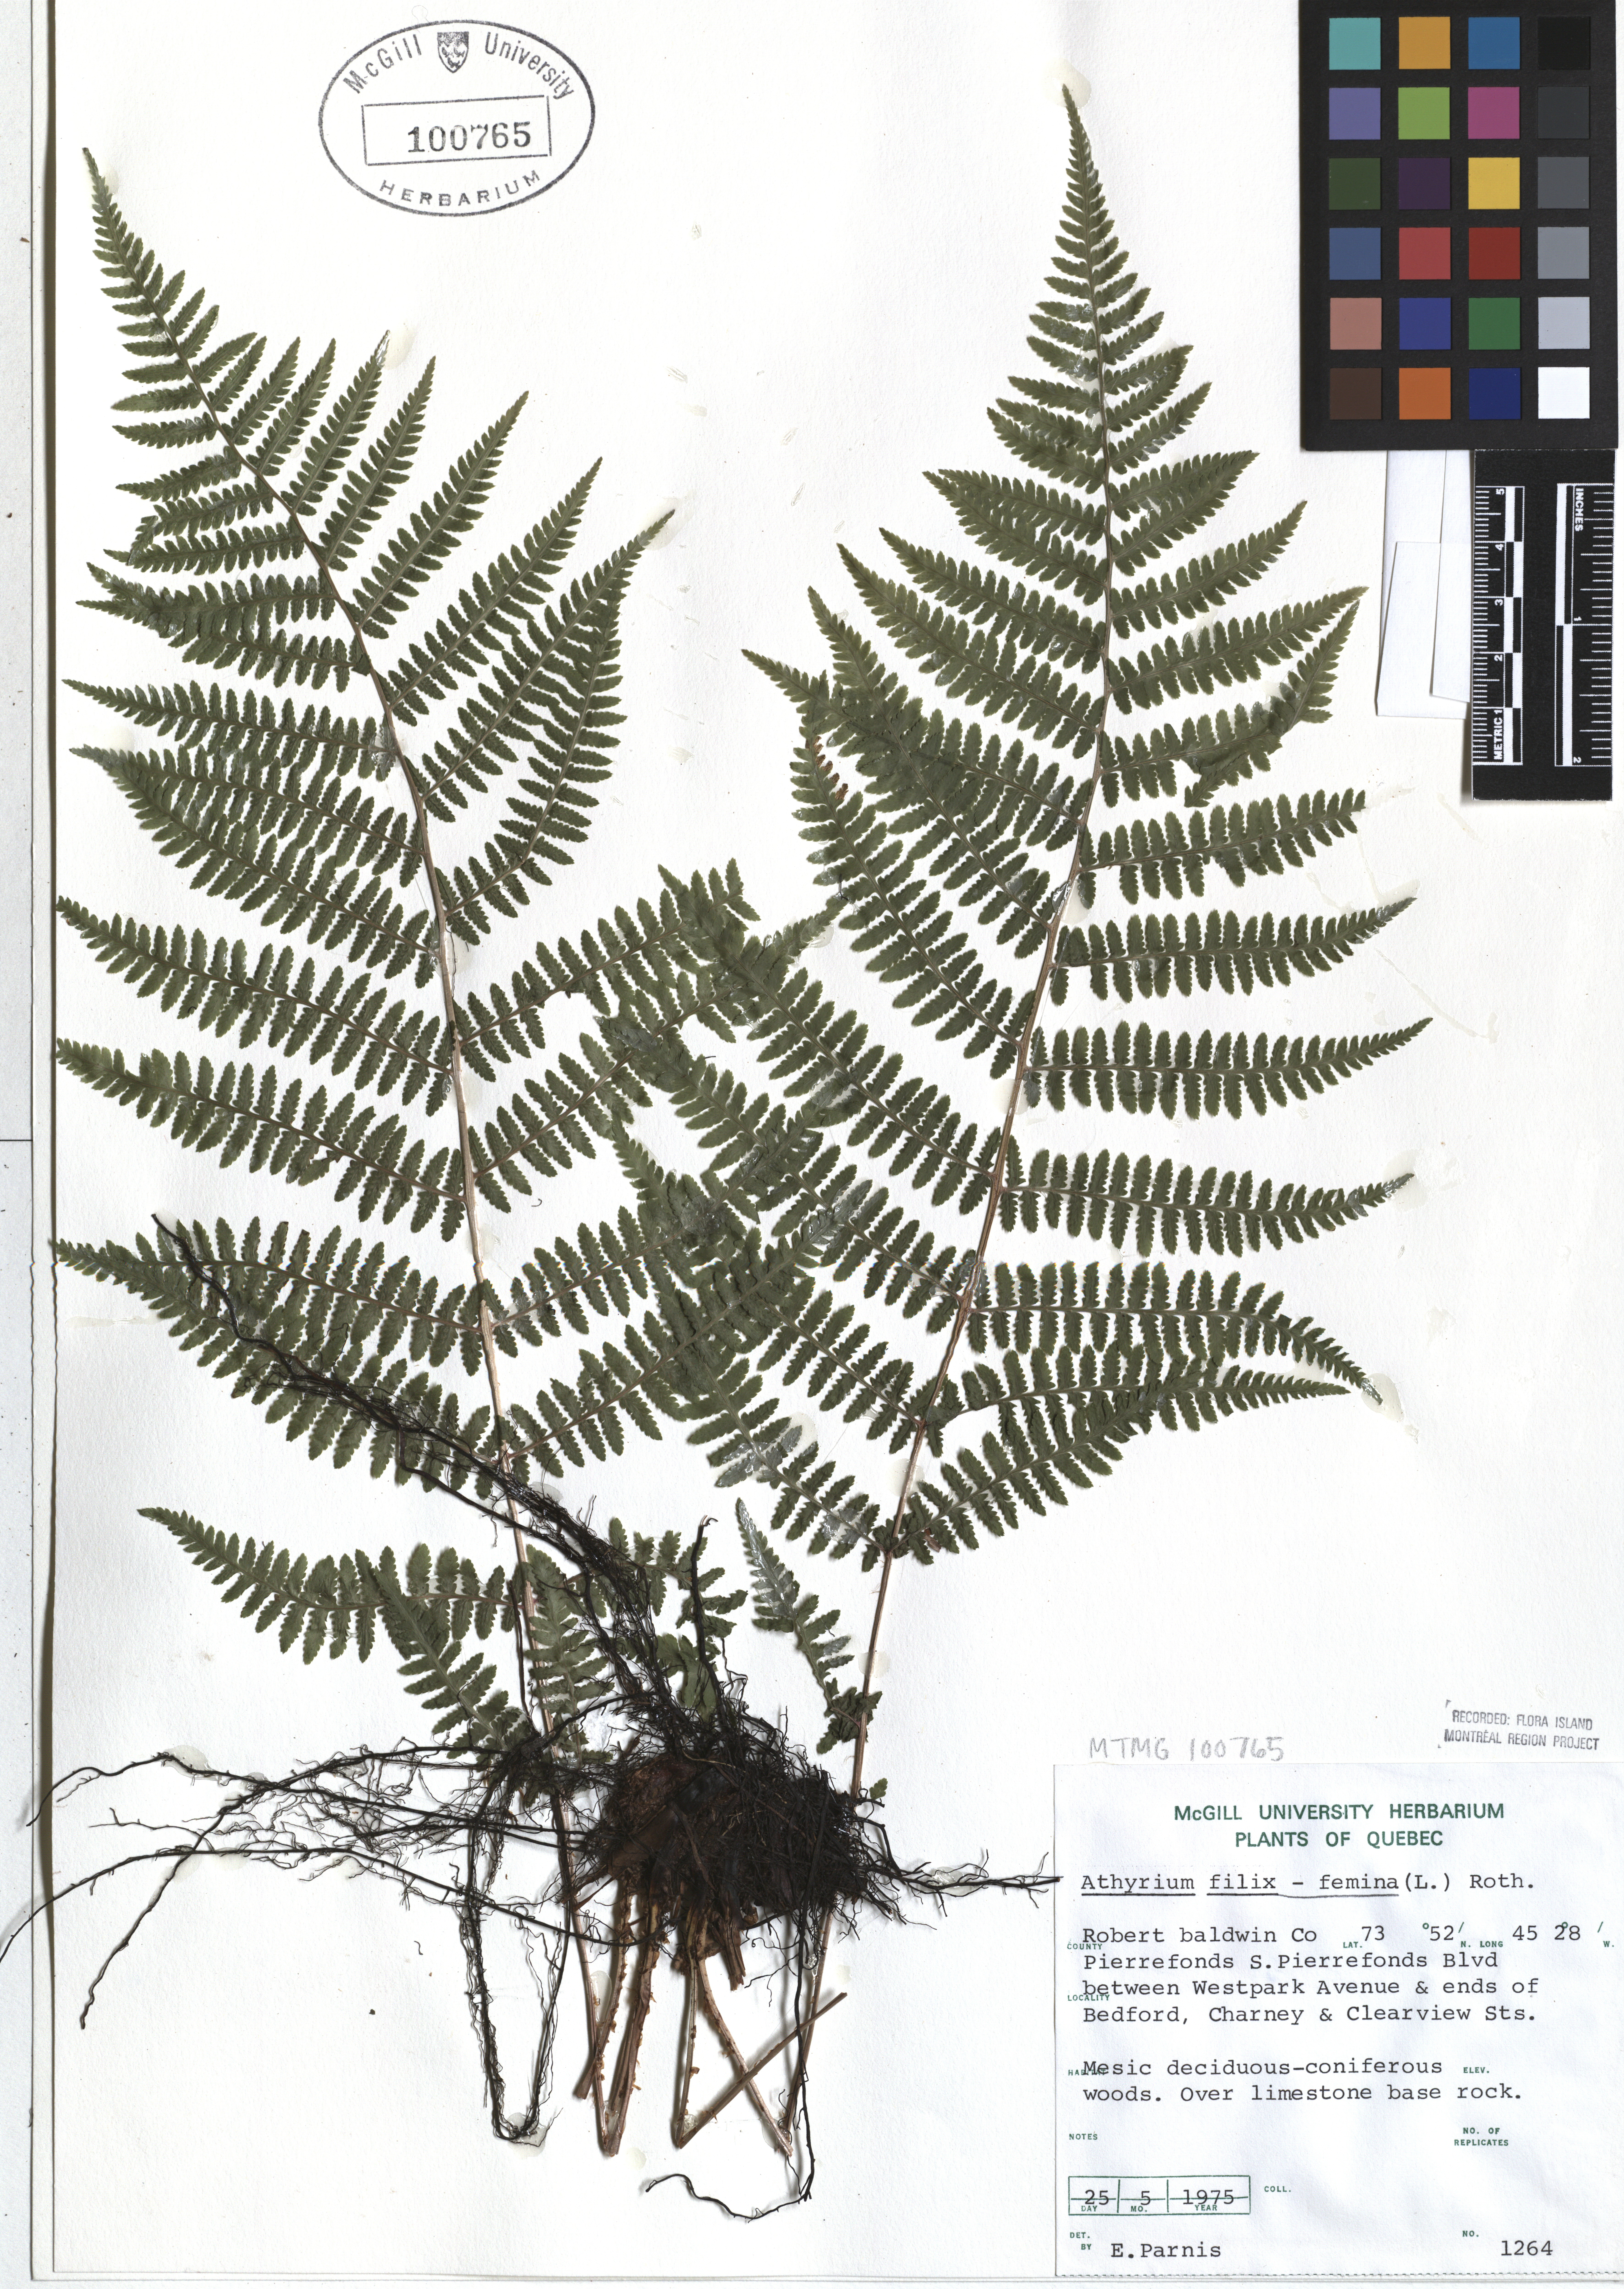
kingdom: Plantae
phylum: Tracheophyta
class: Polypodiopsida
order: Polypodiales
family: Athyriaceae
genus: Athyrium
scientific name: Athyrium filix-femina
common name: Lady fern
